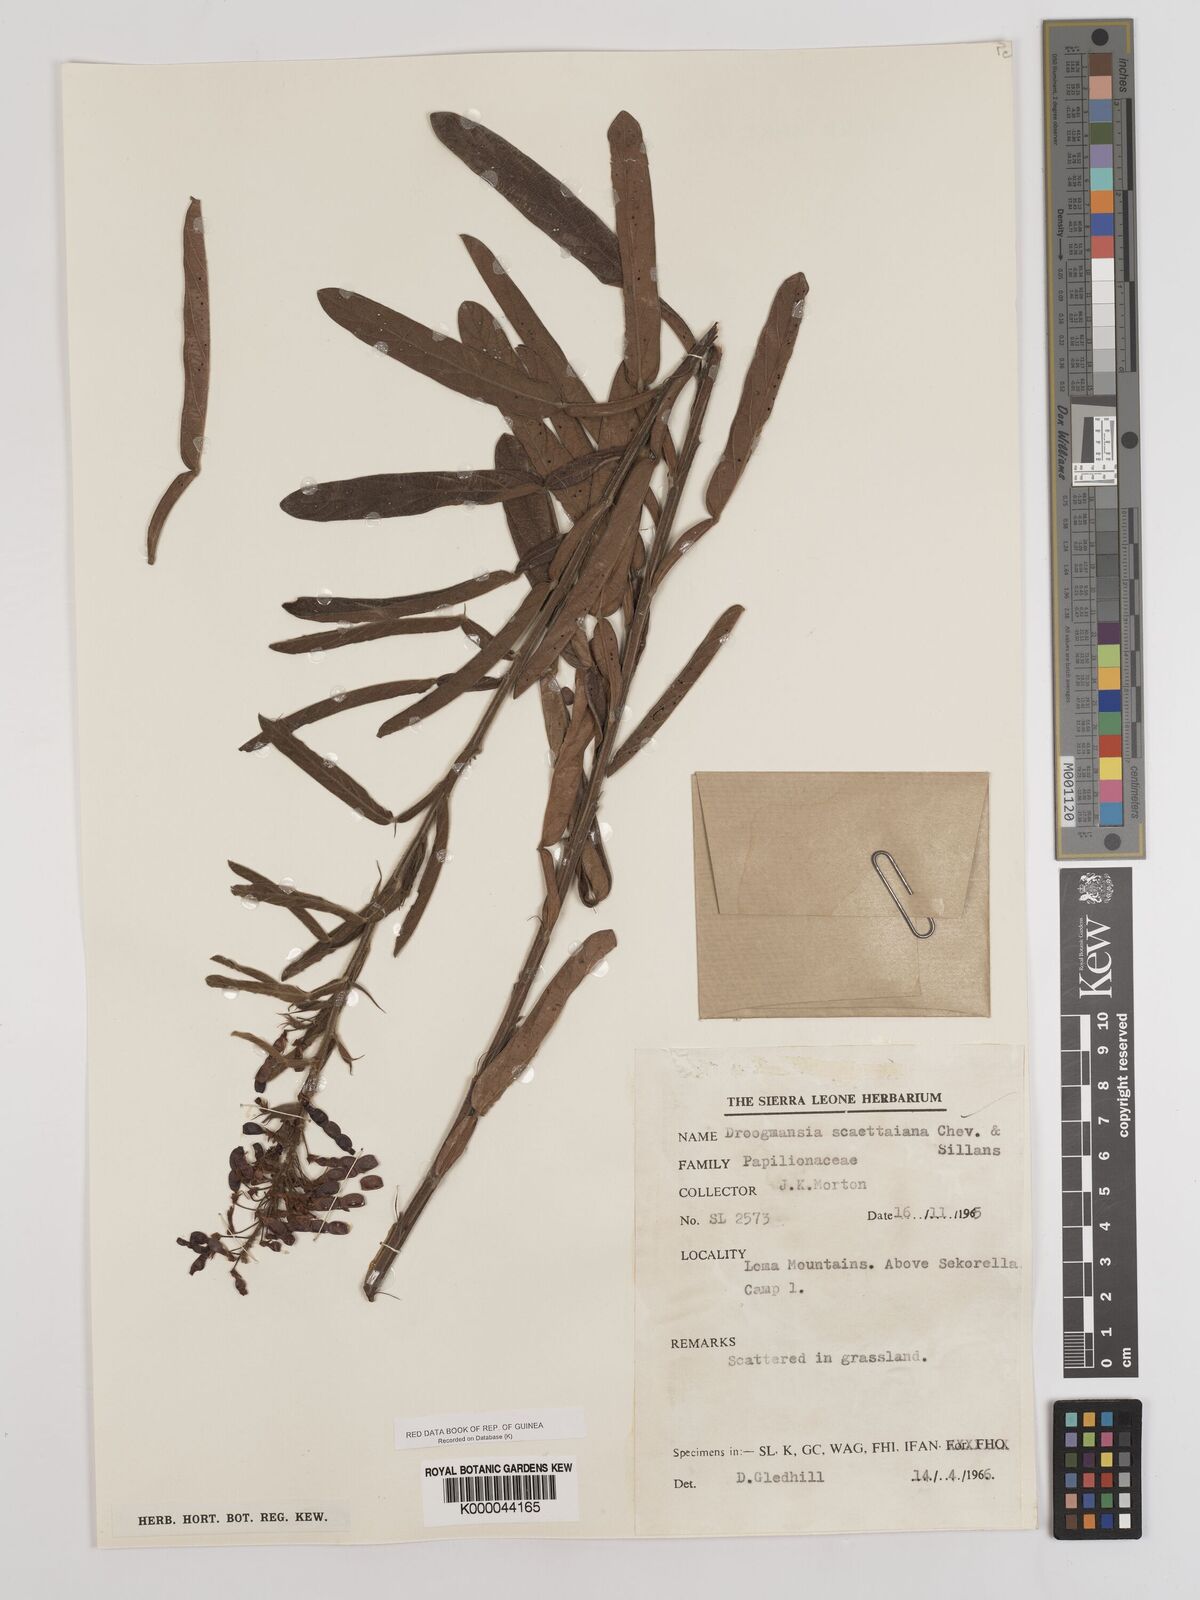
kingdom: Plantae
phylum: Tracheophyta
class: Magnoliopsida
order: Fabales
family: Fabaceae
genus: Droogmansia
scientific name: Droogmansia scaettaiana
